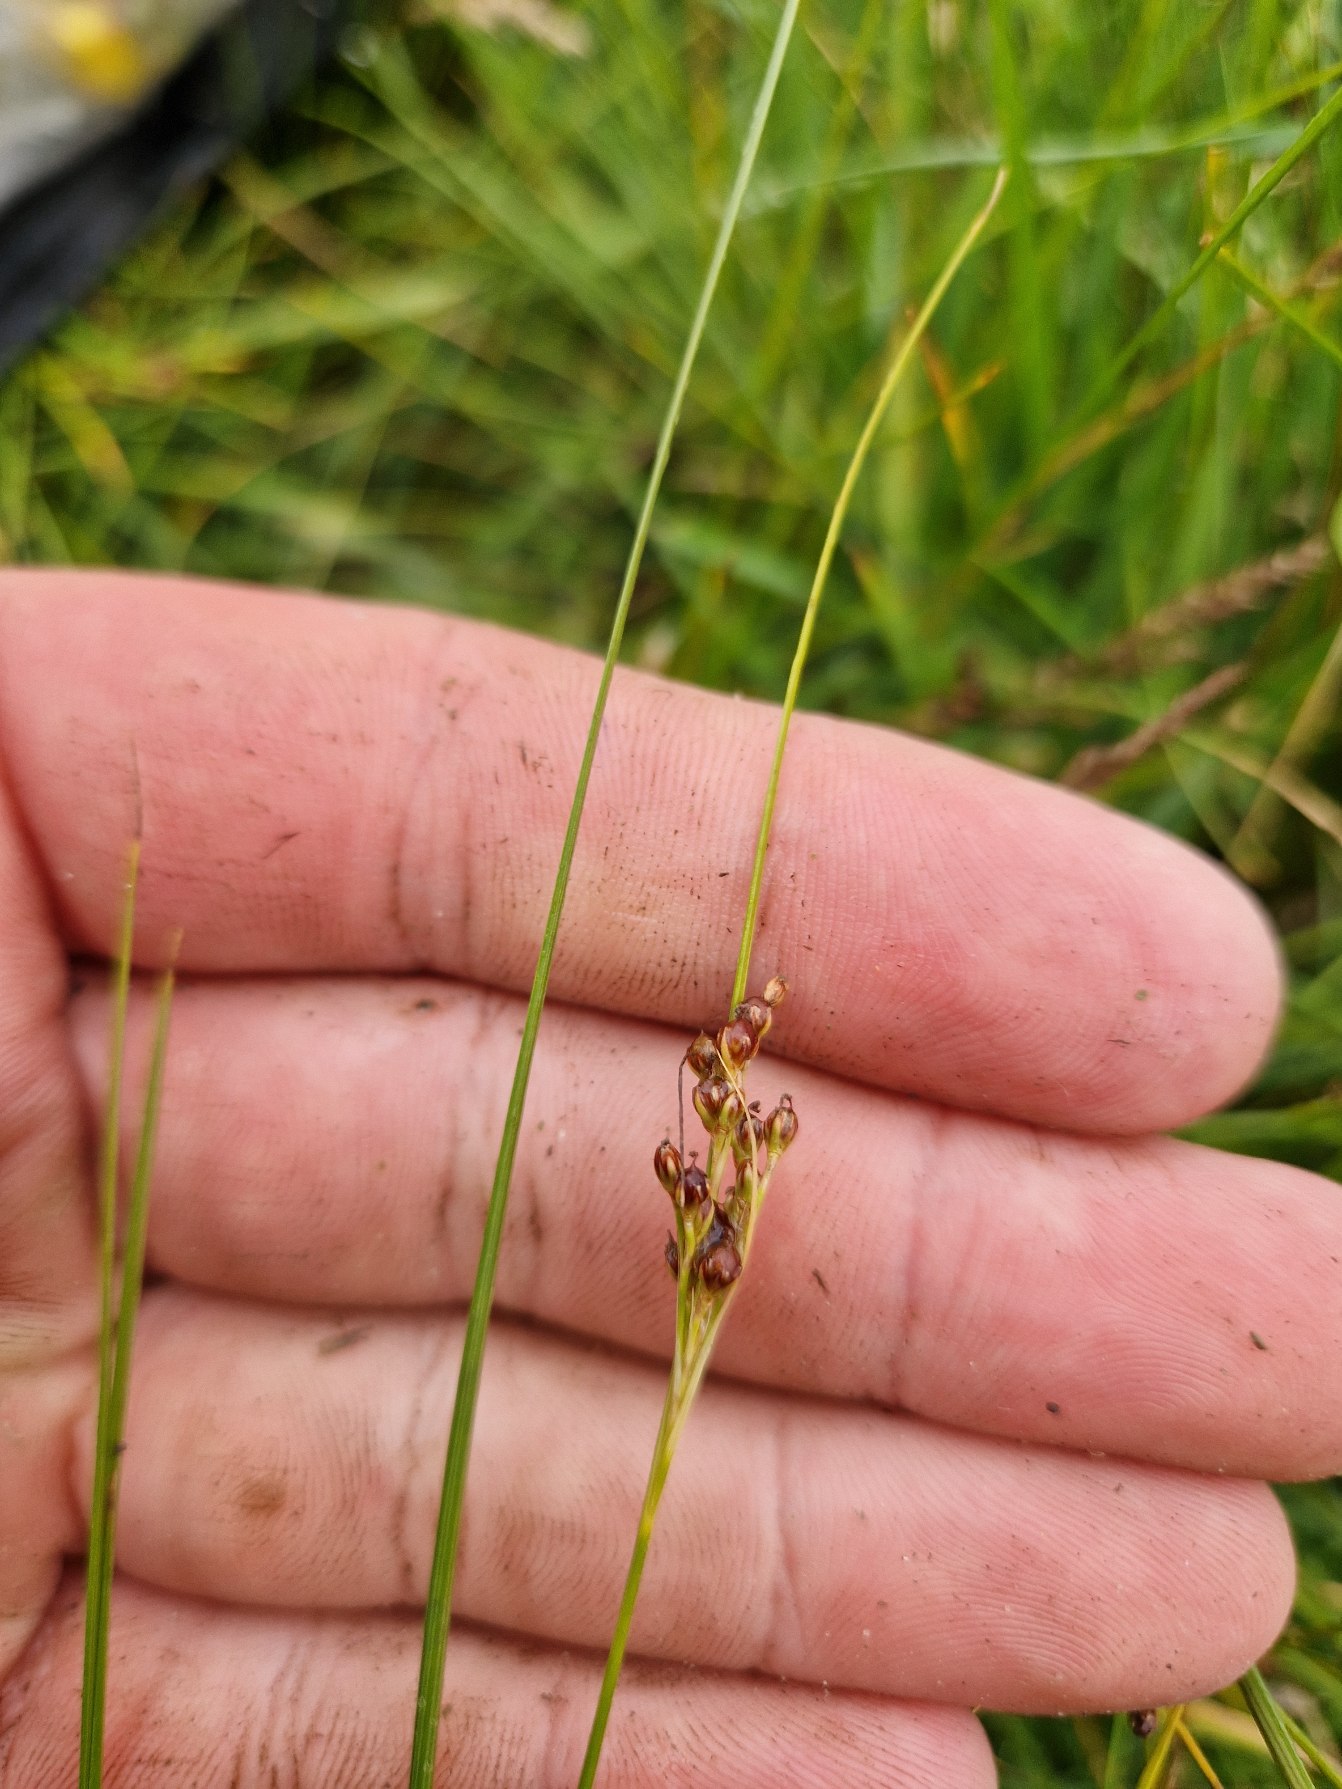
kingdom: Plantae
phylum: Tracheophyta
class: Liliopsida
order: Poales
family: Juncaceae
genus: Juncus
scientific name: Juncus gerardi
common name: Harril
